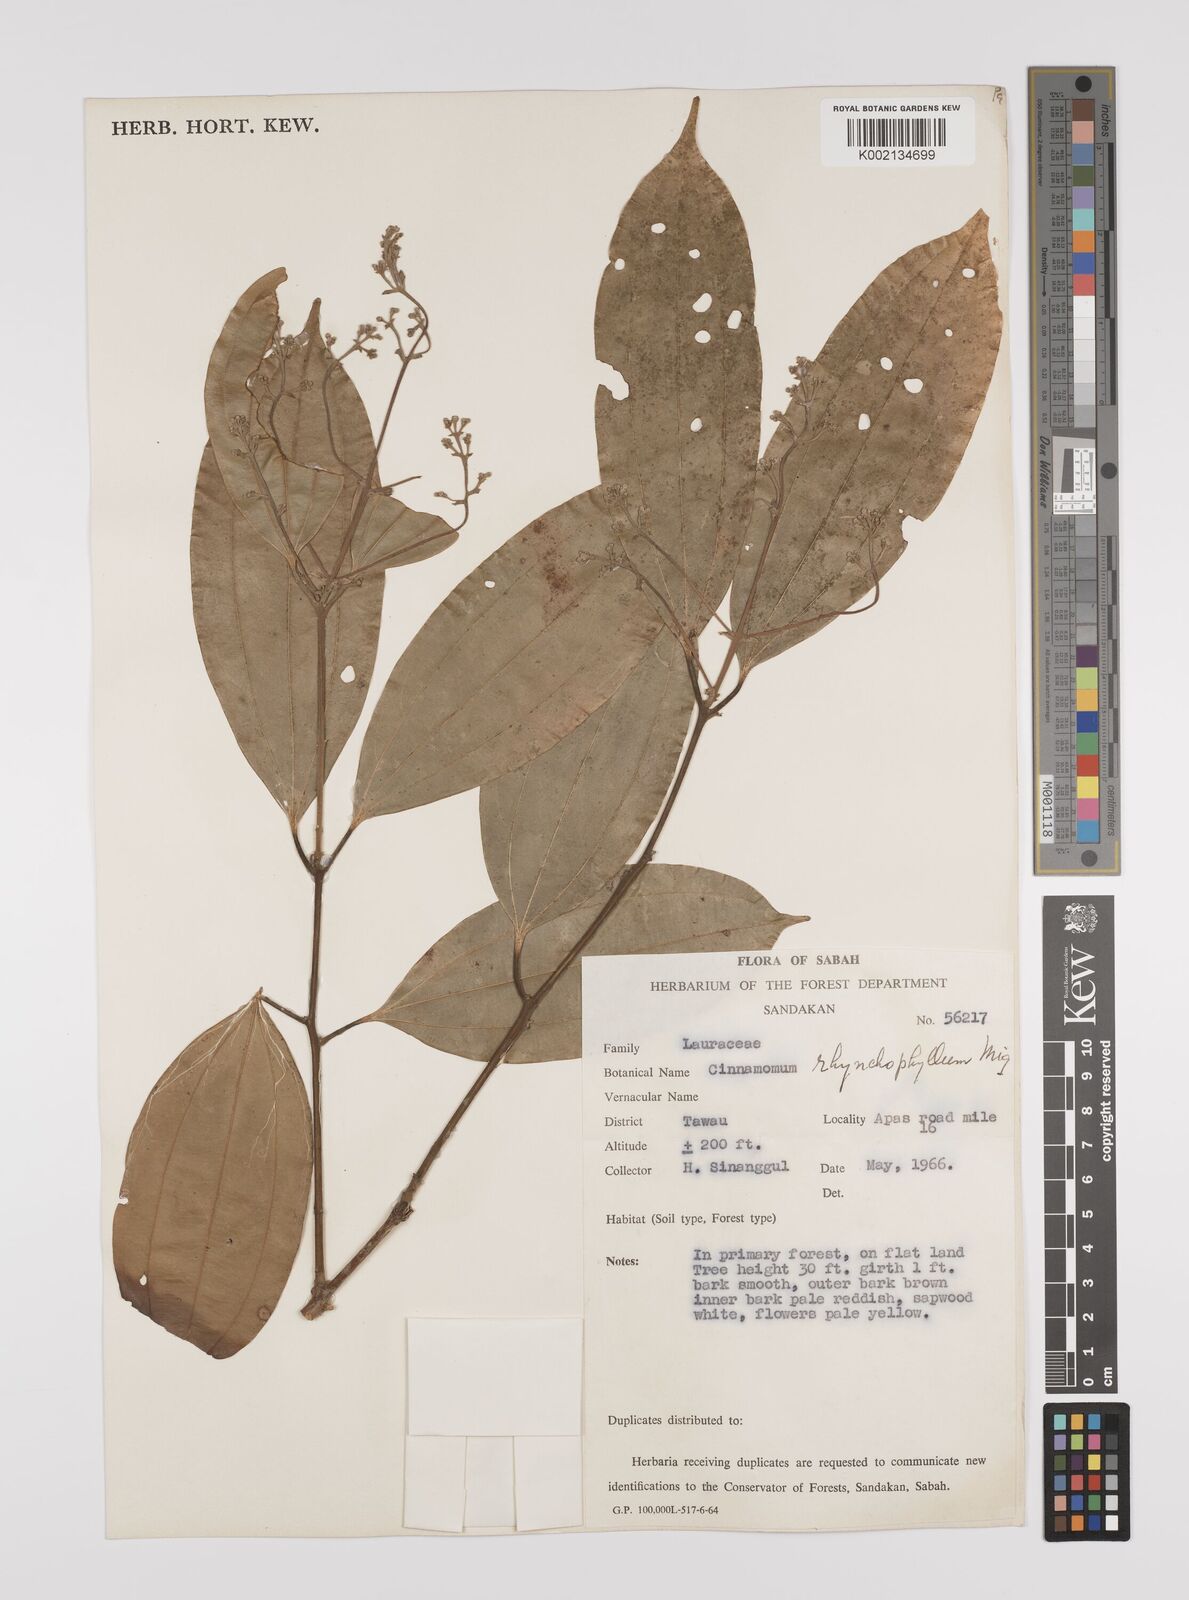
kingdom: Plantae
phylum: Tracheophyta
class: Magnoliopsida
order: Laurales
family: Lauraceae
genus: Cinnamomum
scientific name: Cinnamomum rhynchophyllum
